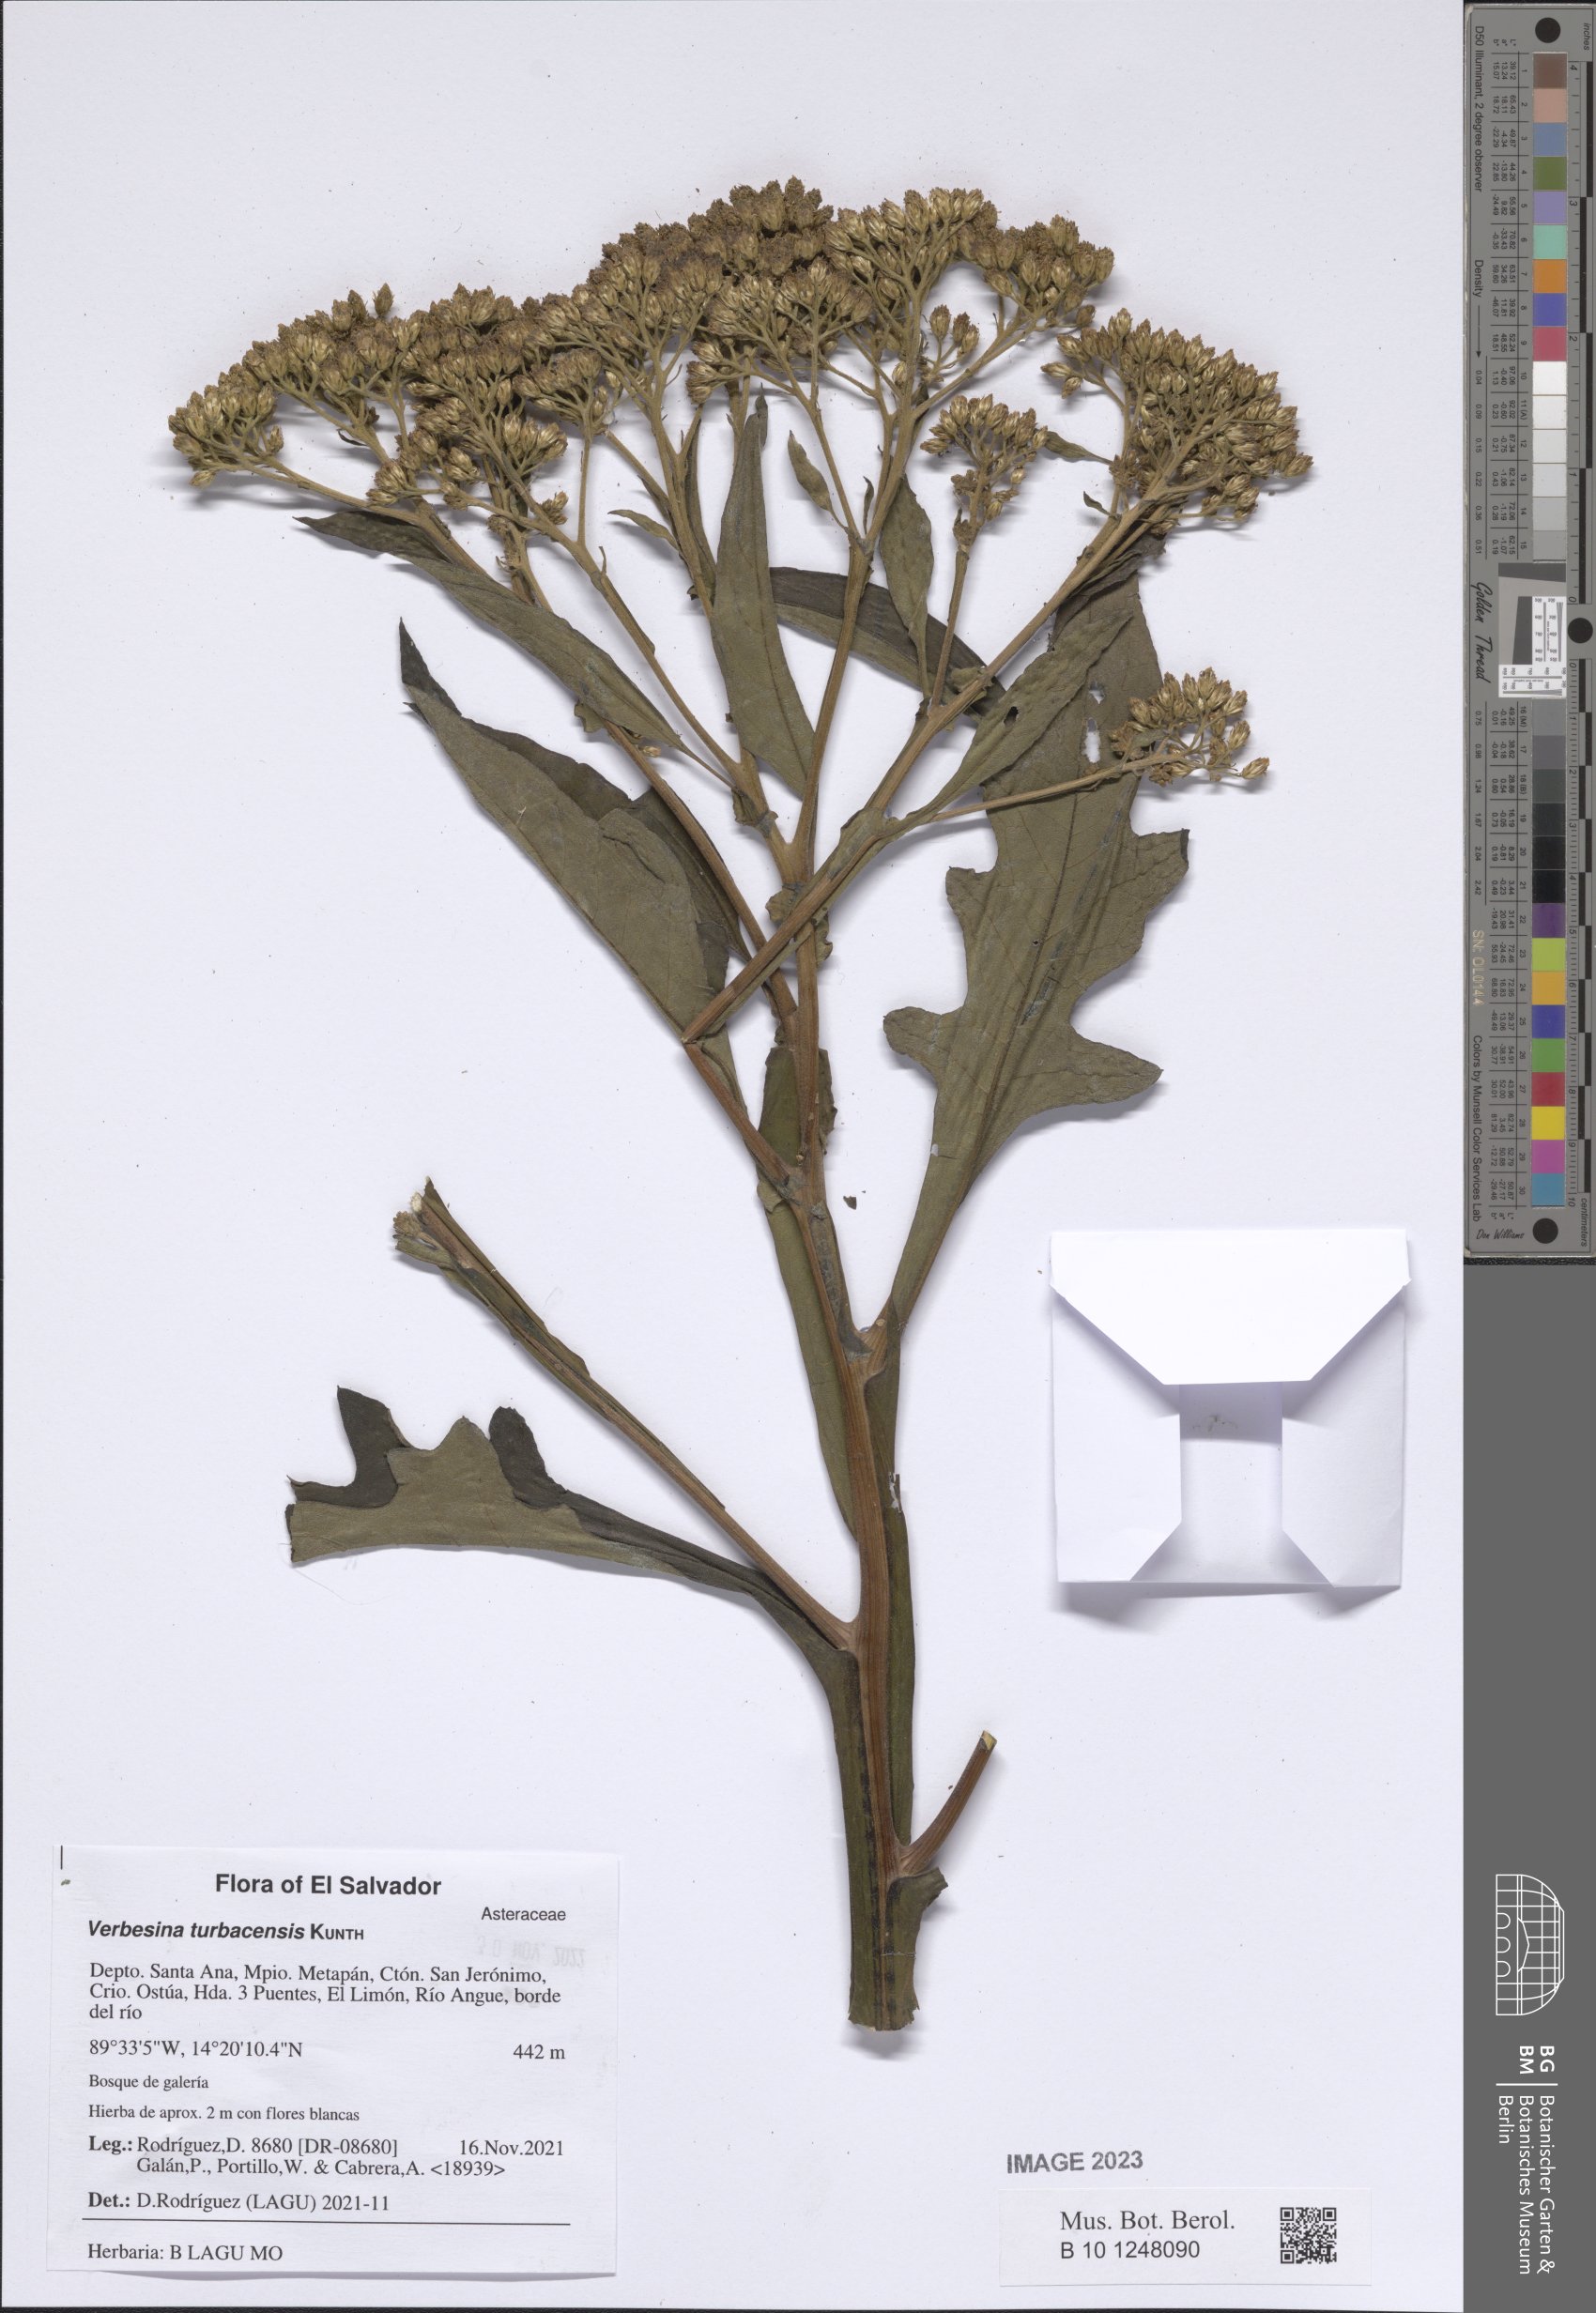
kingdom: Plantae
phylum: Tracheophyta
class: Magnoliopsida
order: Asterales
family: Asteraceae
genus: Verbesina
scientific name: Verbesina turbacensis
